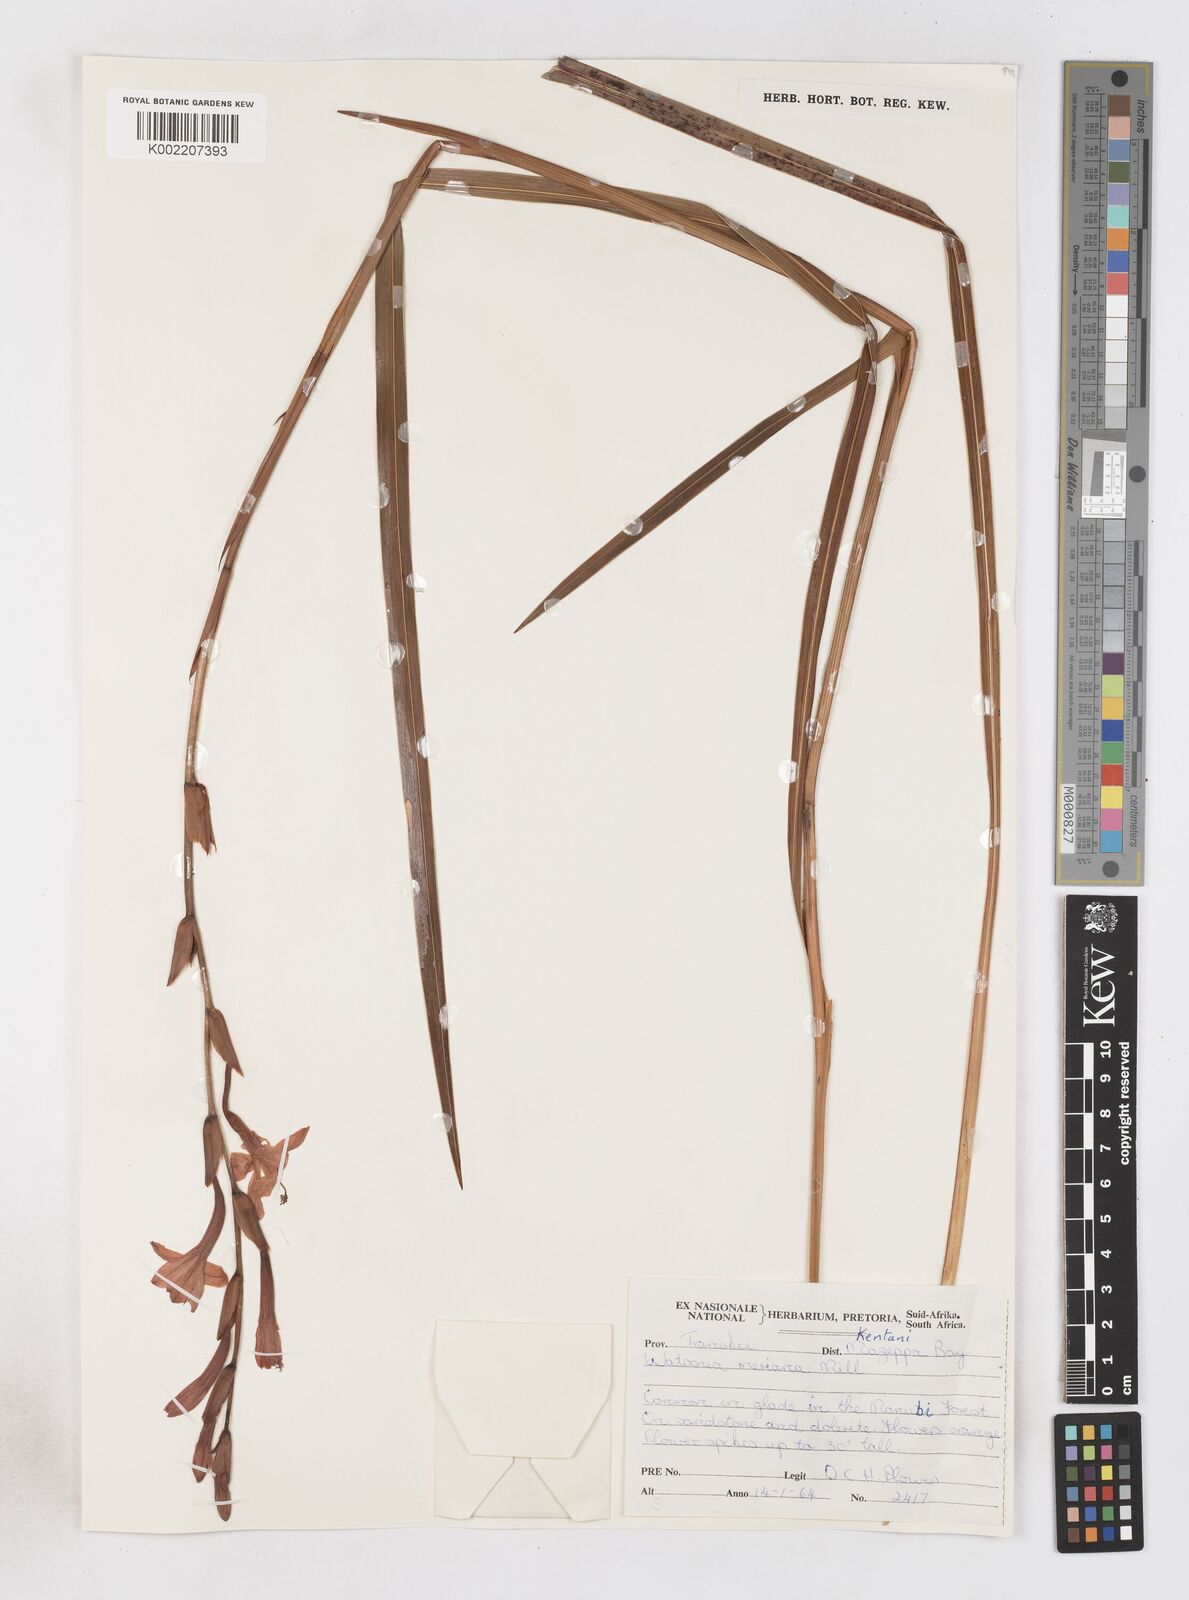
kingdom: Plantae
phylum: Tracheophyta
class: Liliopsida
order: Asparagales
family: Iridaceae
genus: Watsonia
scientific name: Watsonia pillansii
